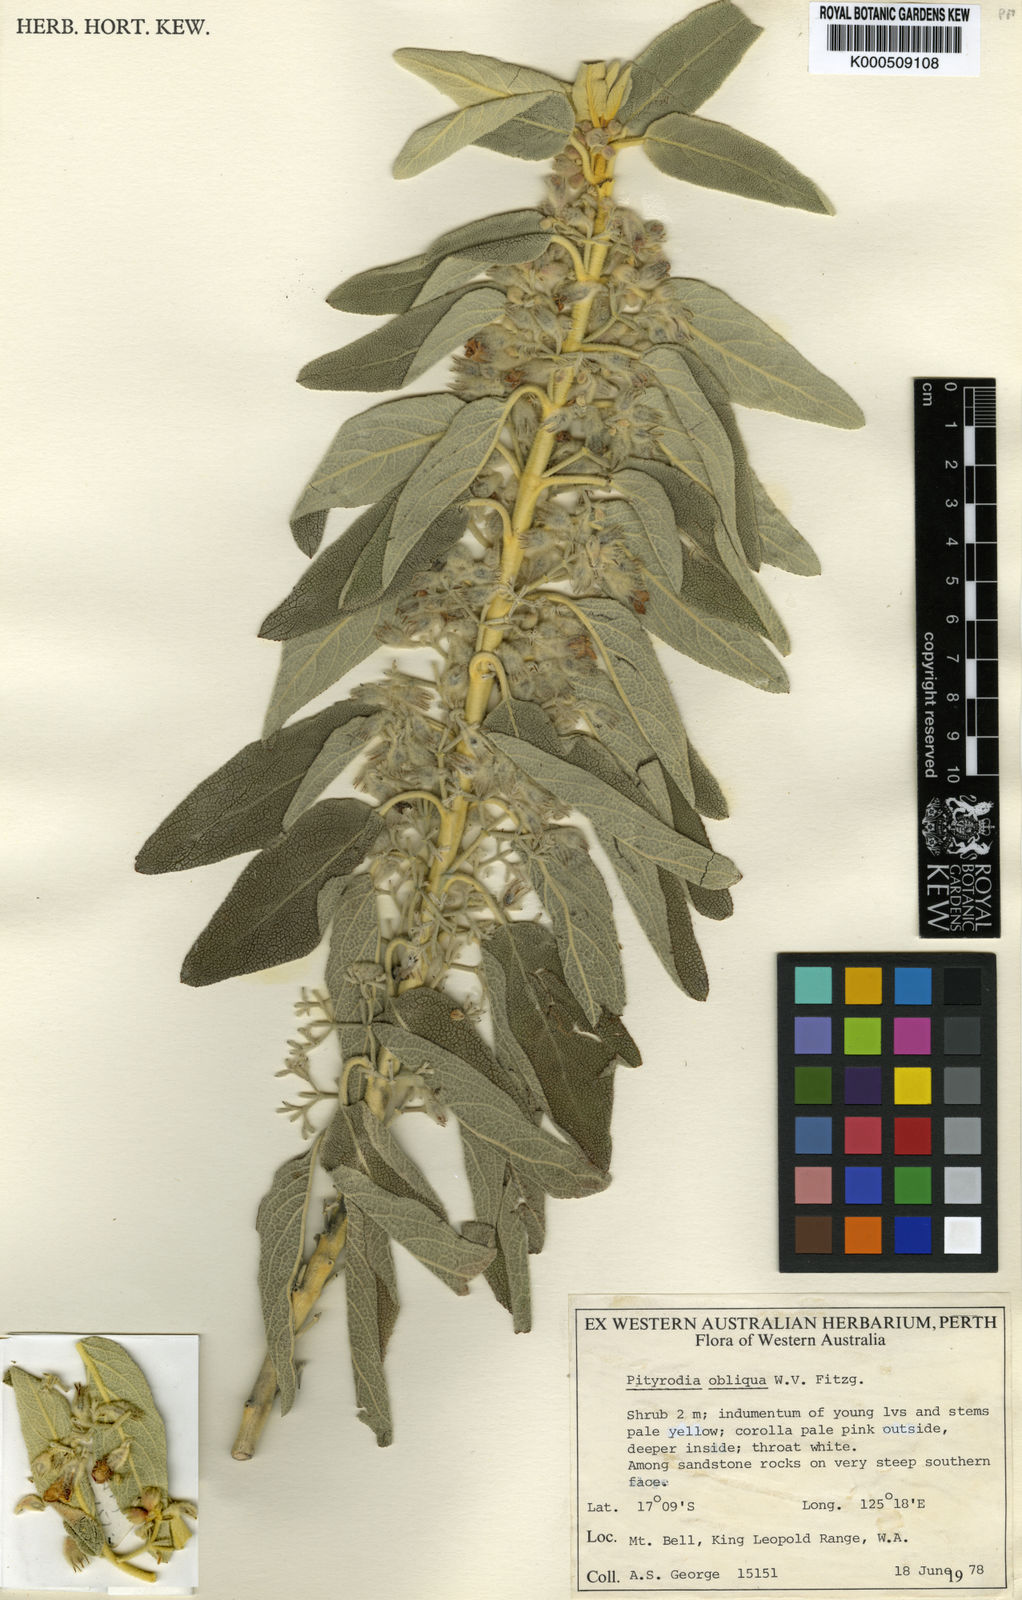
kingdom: Plantae
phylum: Tracheophyta
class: Magnoliopsida
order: Lamiales
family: Lamiaceae
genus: Pityrodia
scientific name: Pityrodia obliqua
